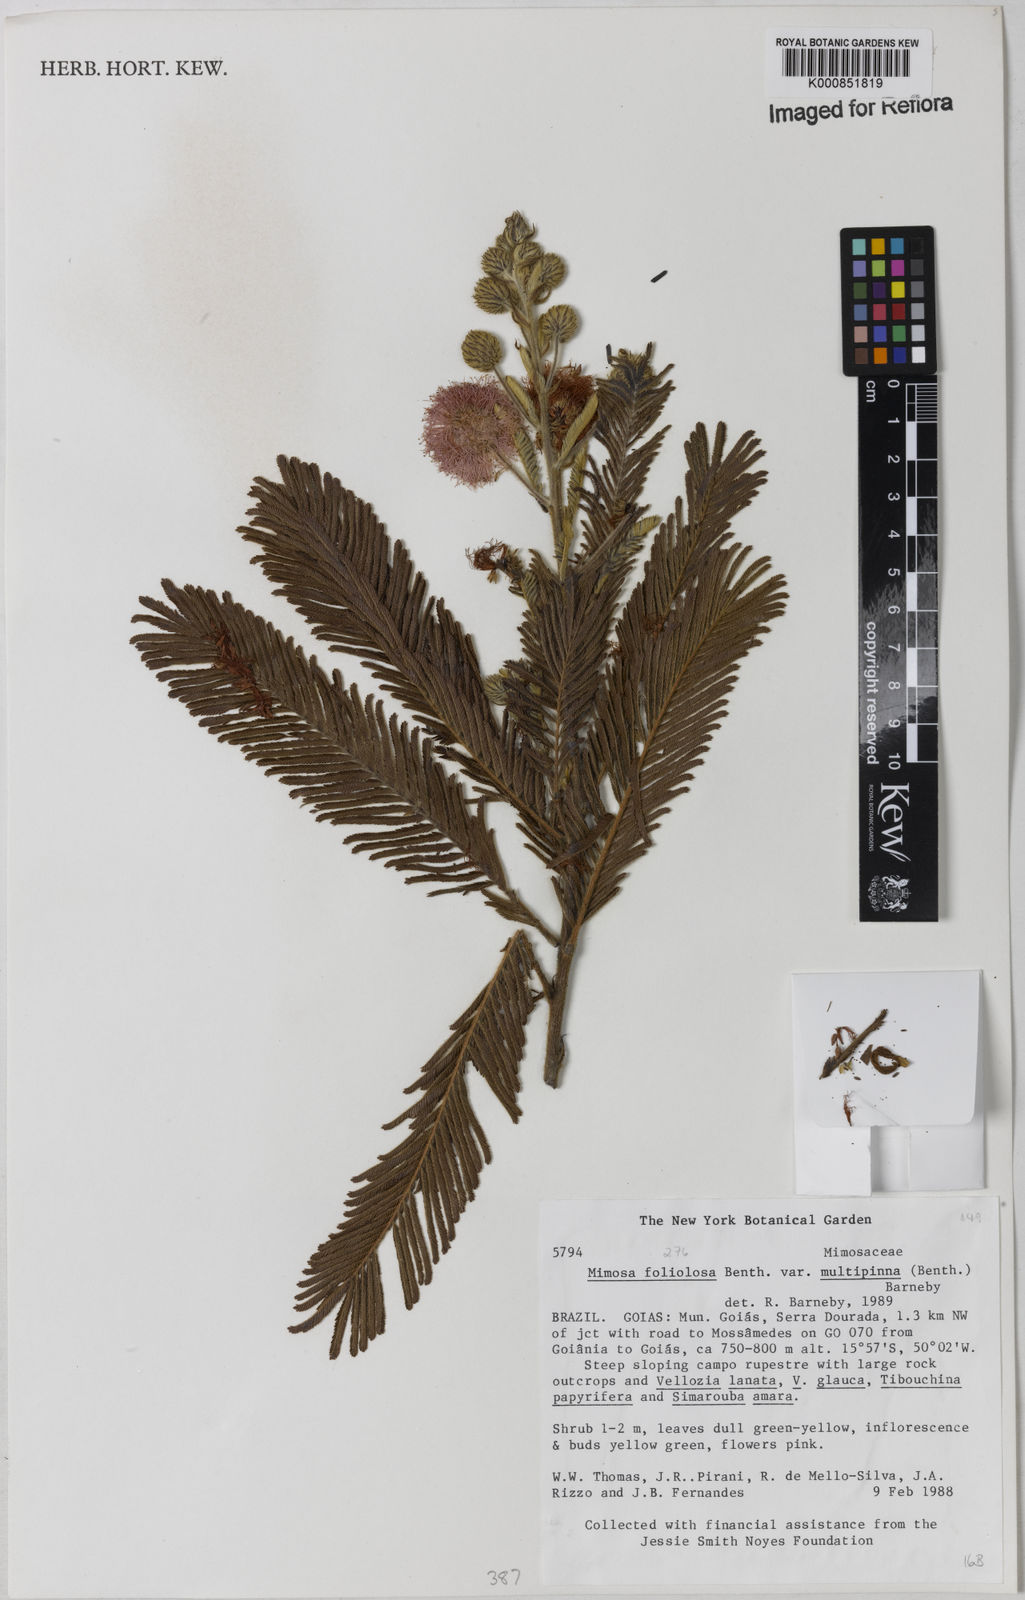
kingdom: Plantae
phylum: Tracheophyta
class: Magnoliopsida
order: Fabales
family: Fabaceae
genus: Mimosa
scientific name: Mimosa foliolosa
